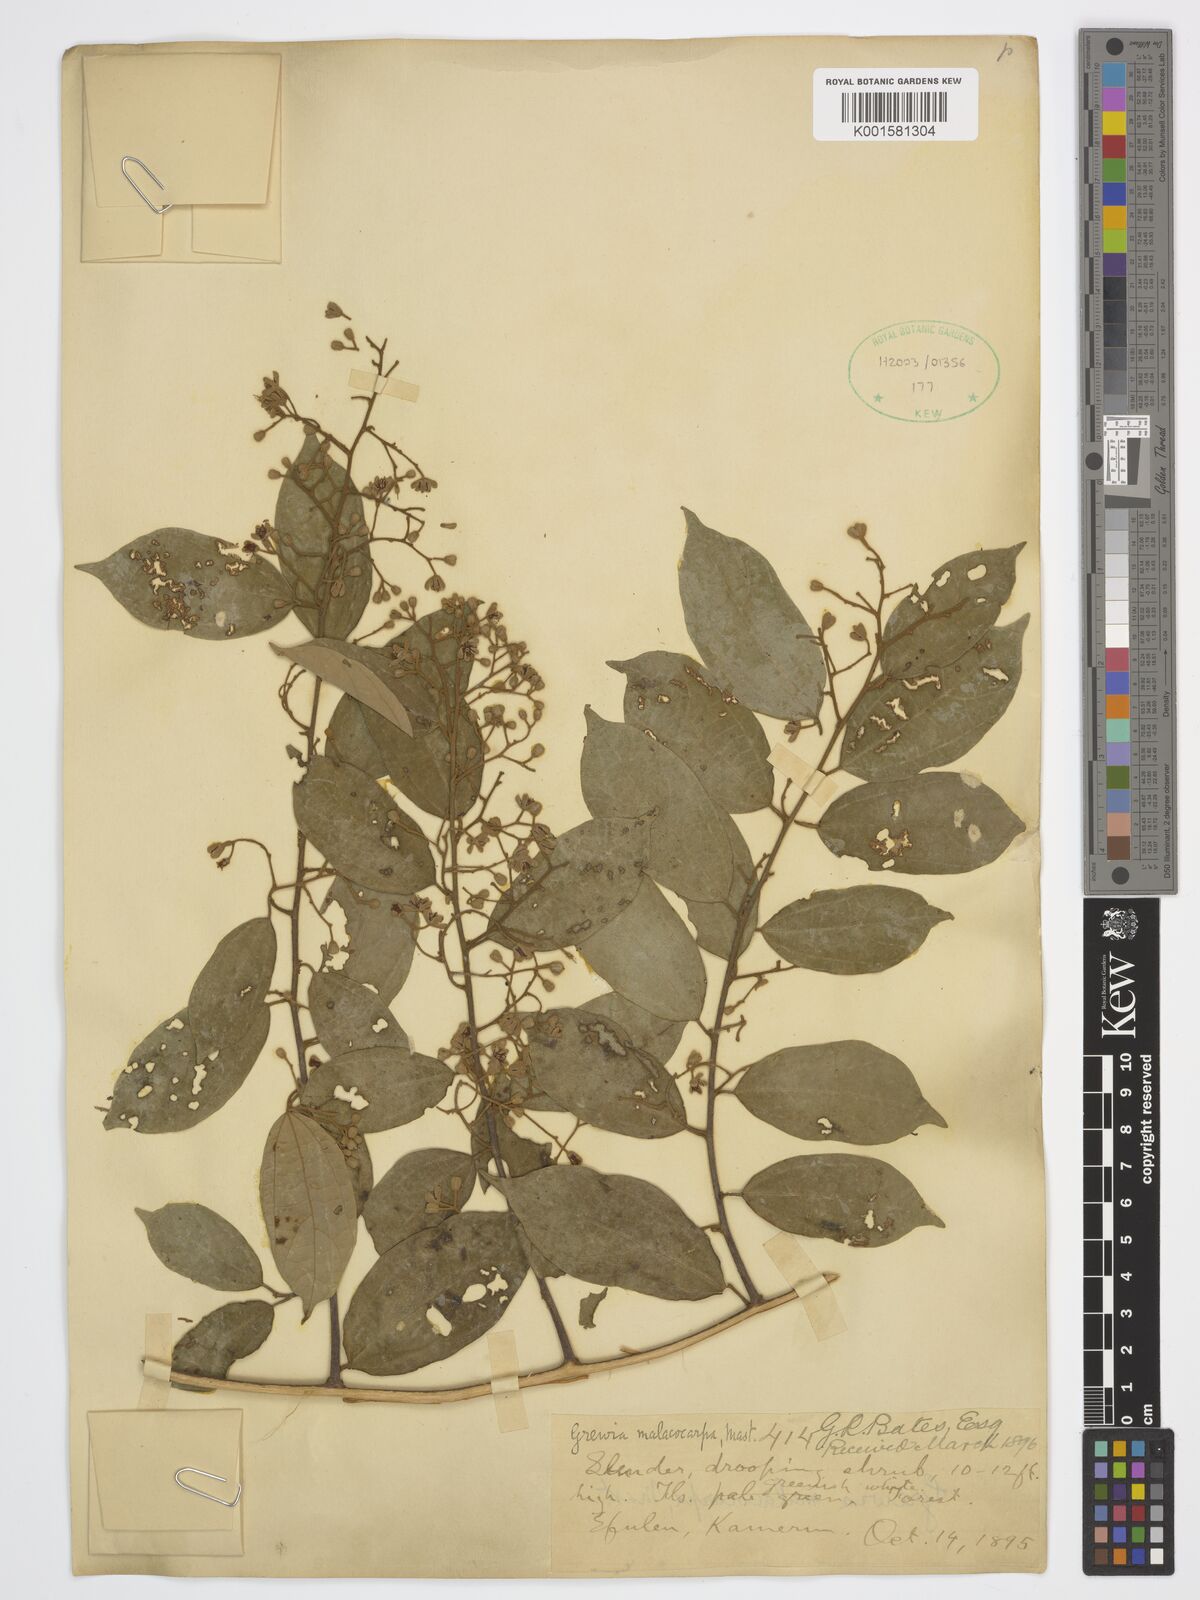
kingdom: Plantae
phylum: Tracheophyta
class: Magnoliopsida
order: Malvales
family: Malvaceae
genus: Microcos
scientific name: Microcos malacocarpa
